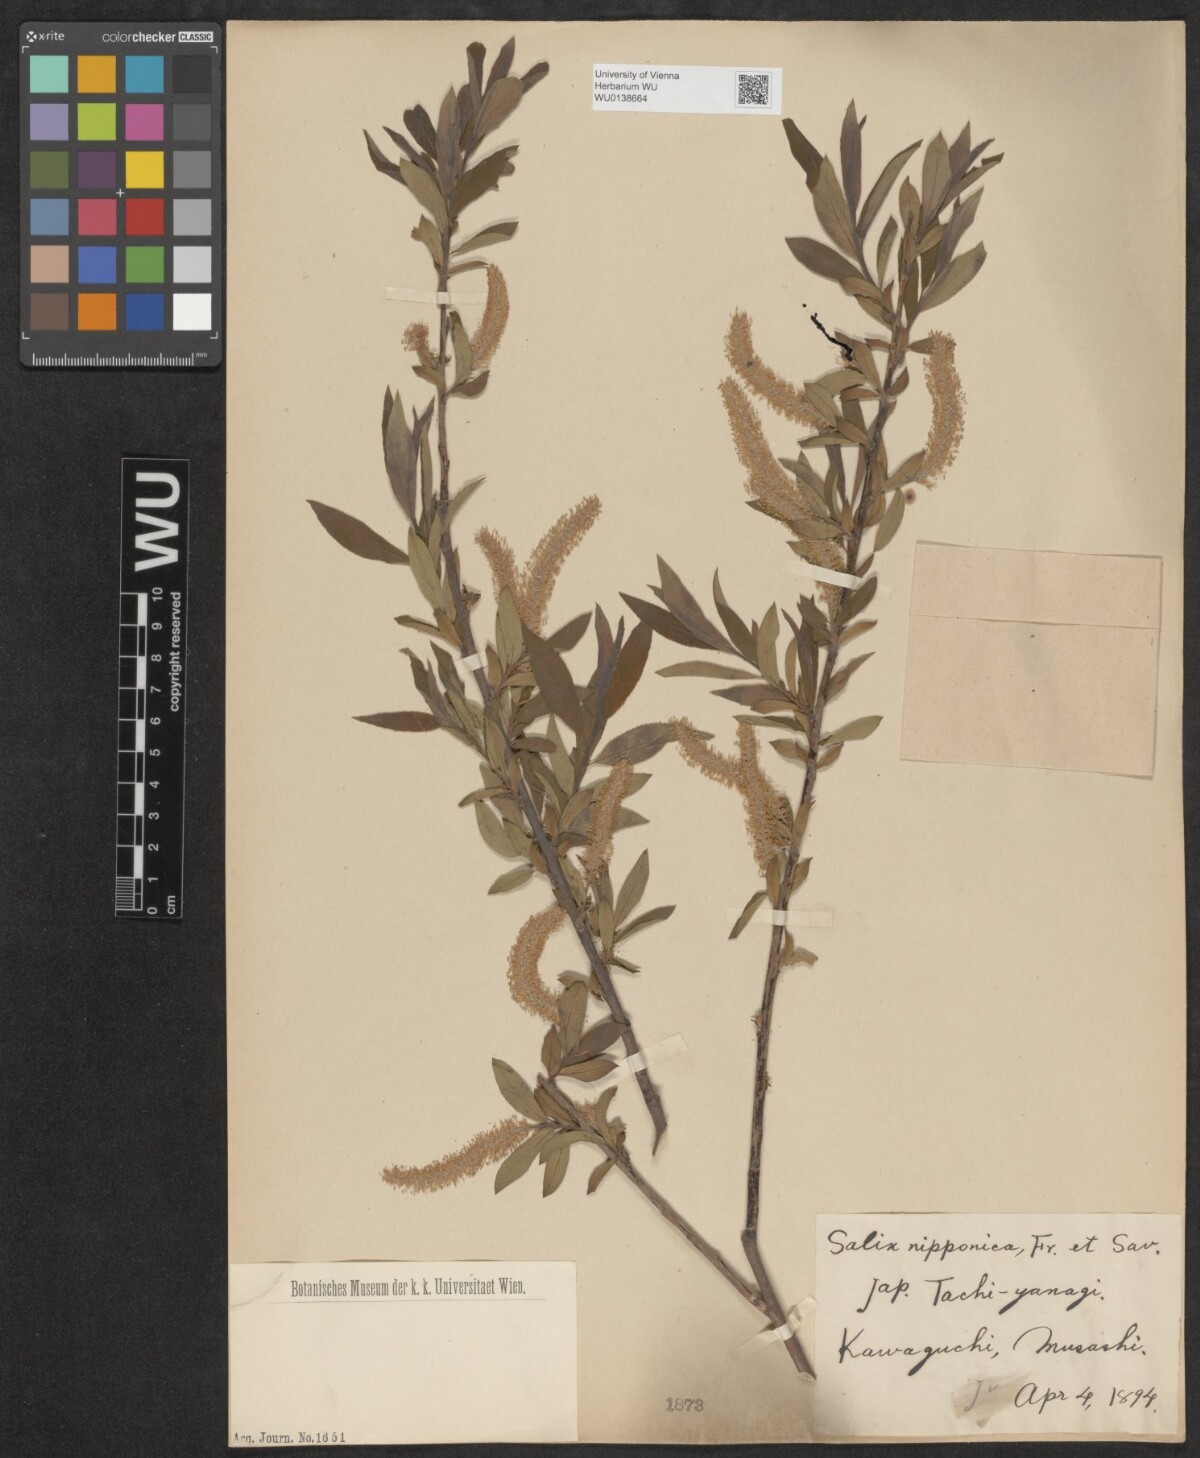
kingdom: Plantae
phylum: Tracheophyta
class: Magnoliopsida
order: Malpighiales
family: Salicaceae
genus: Salix
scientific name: Salix subfragilis
